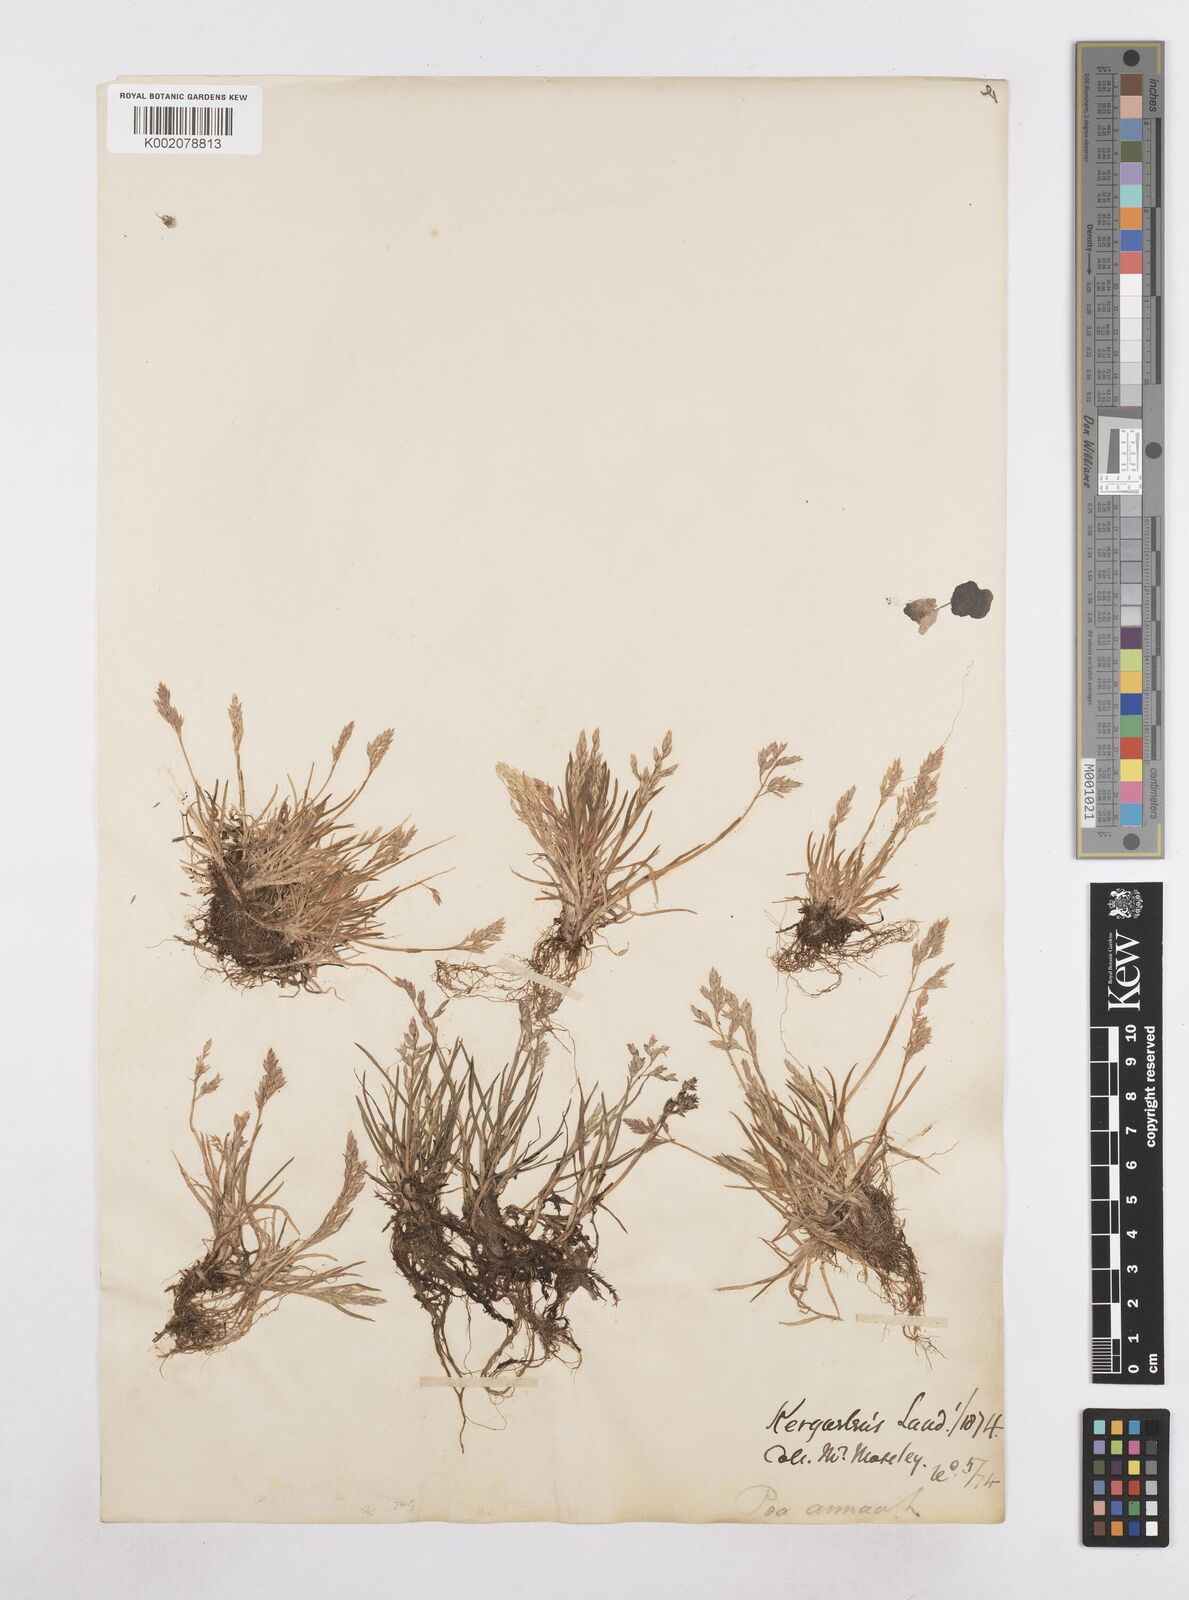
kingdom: Plantae
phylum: Tracheophyta
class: Liliopsida
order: Poales
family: Poaceae
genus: Poa
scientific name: Poa annua
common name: Annual bluegrass
